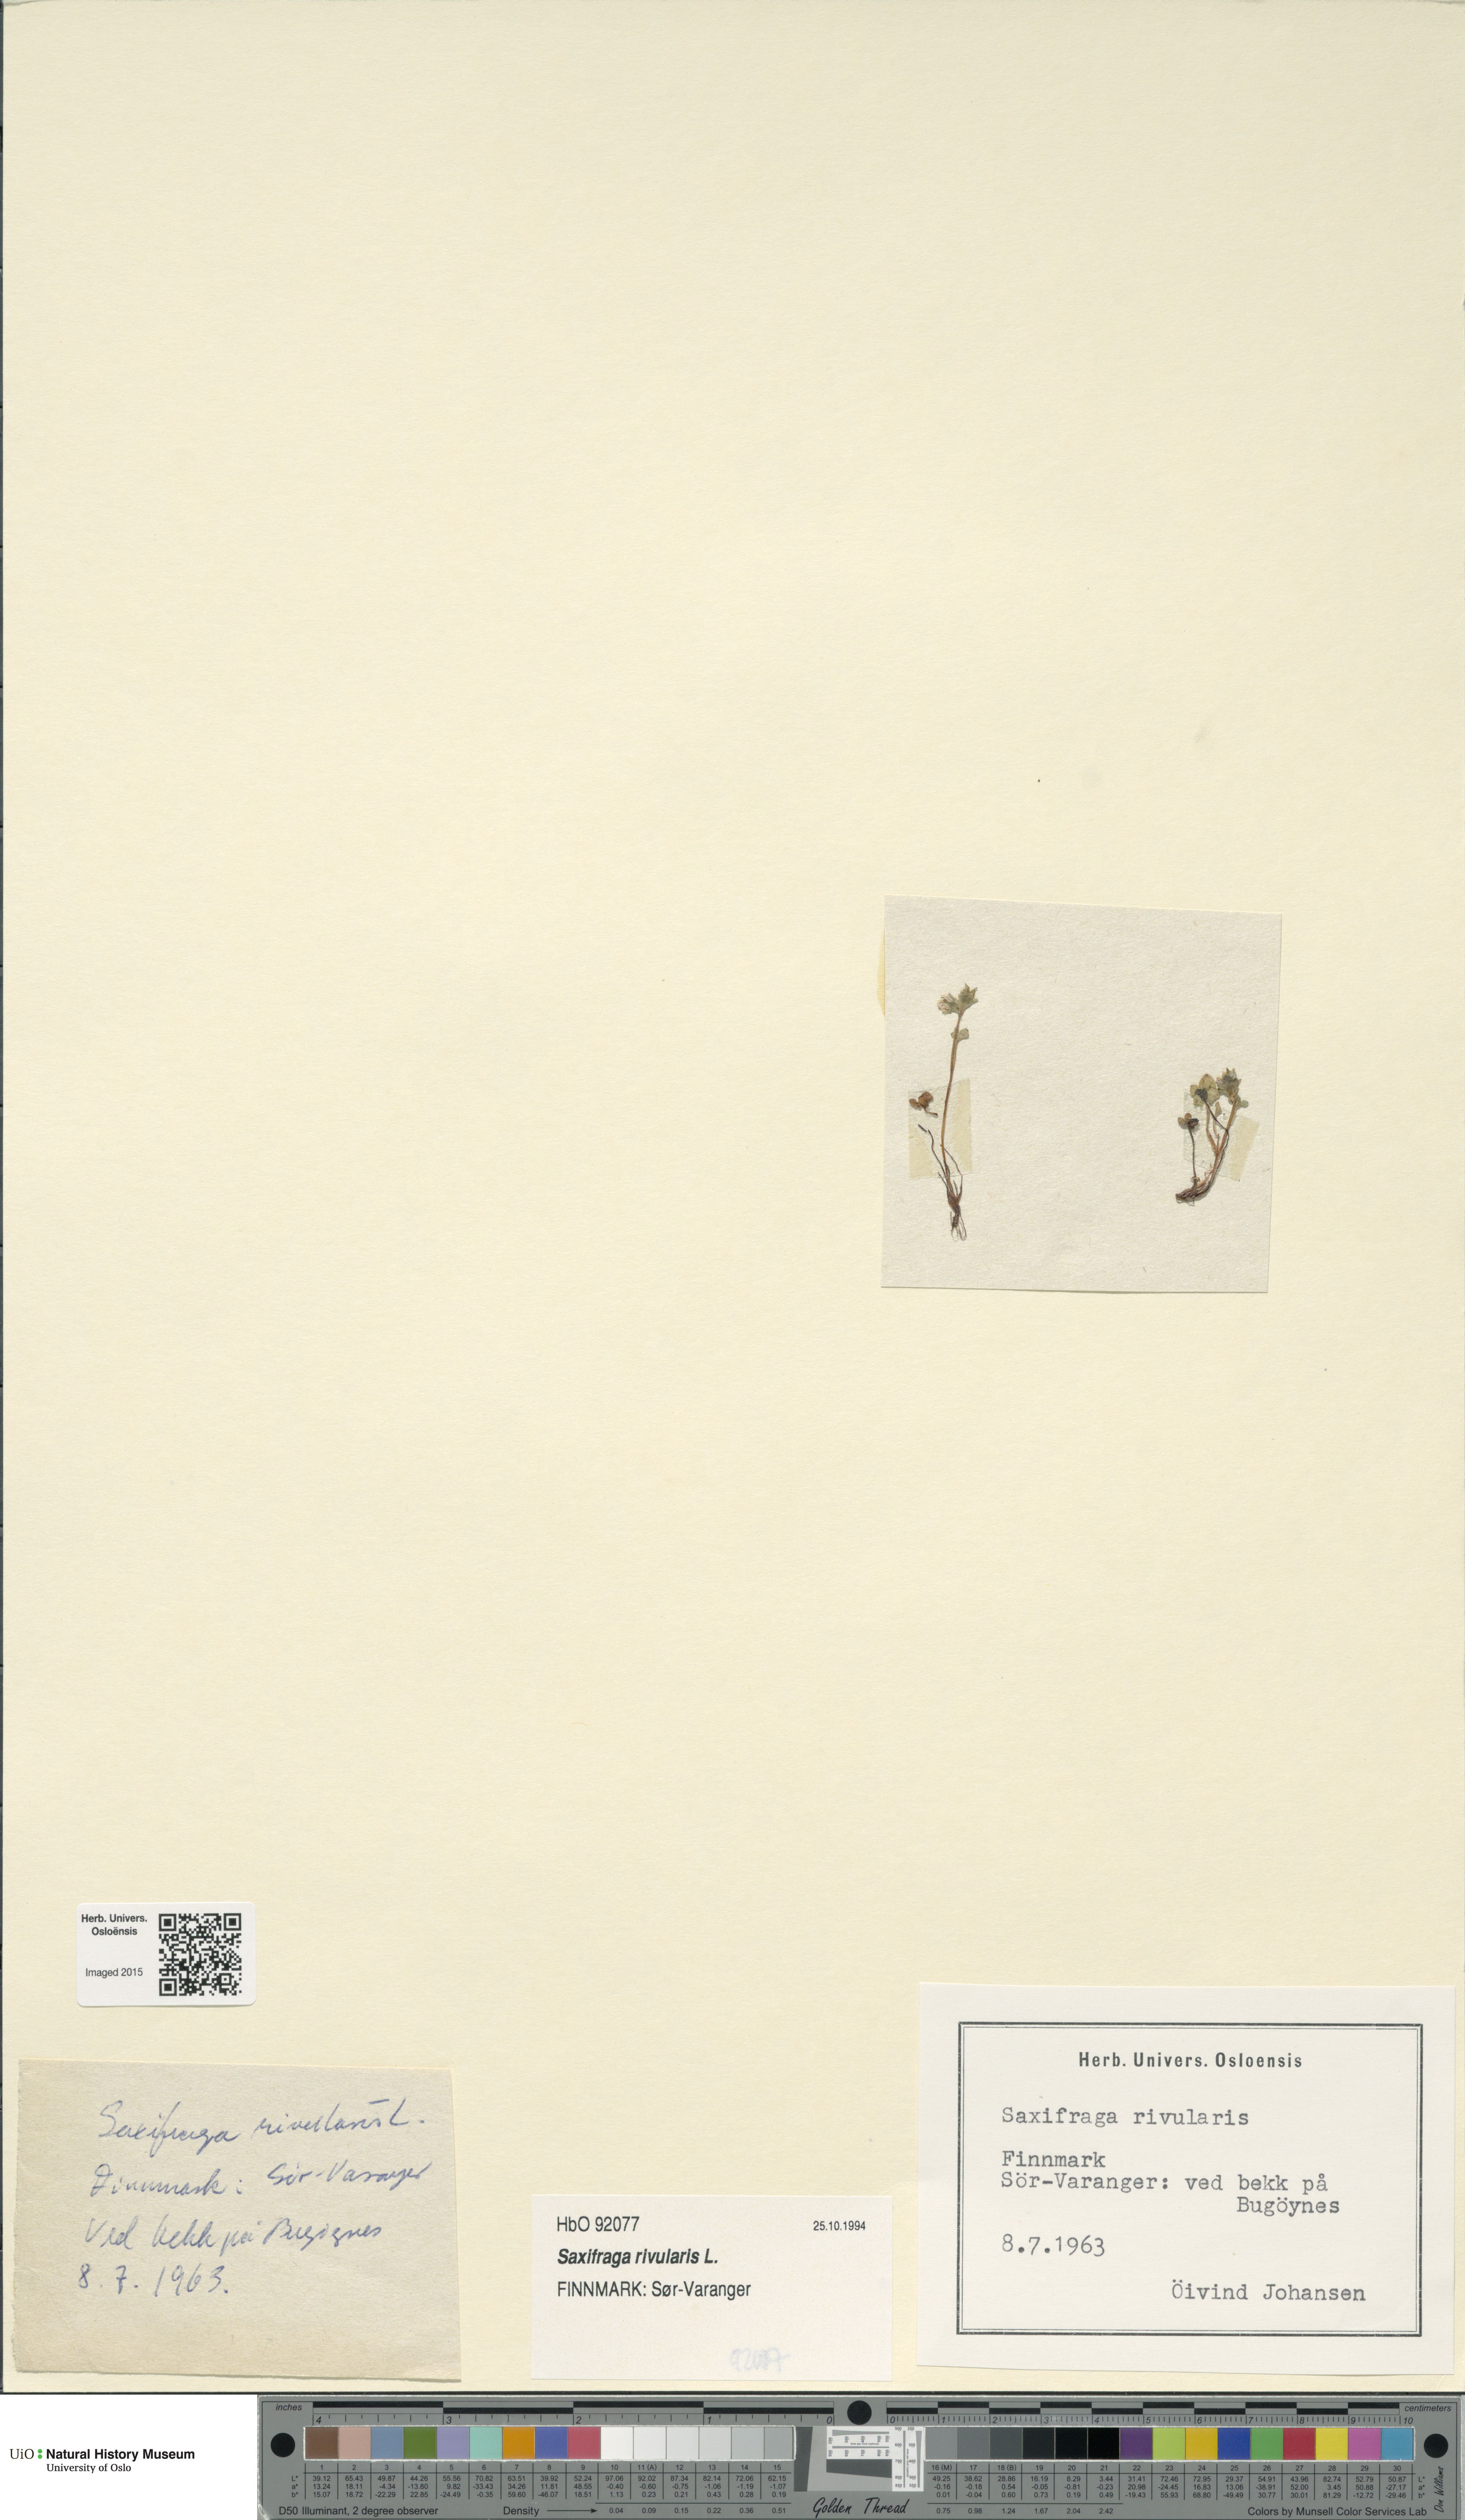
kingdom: Plantae
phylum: Tracheophyta
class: Magnoliopsida
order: Saxifragales
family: Saxifragaceae
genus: Saxifraga
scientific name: Saxifraga rivularis
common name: Highland saxifrage
